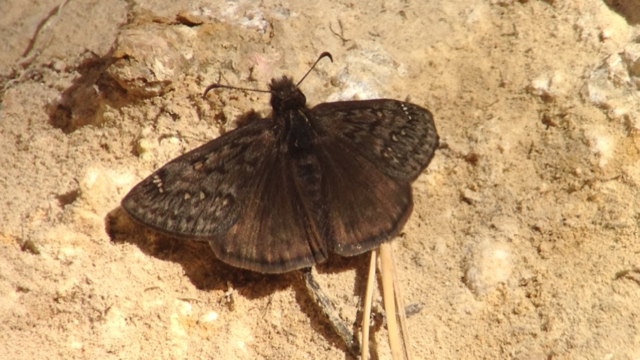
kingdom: Animalia
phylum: Arthropoda
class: Insecta
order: Lepidoptera
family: Hesperiidae
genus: Erynnis
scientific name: Erynnis meridianus
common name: Meridian Duskywing
